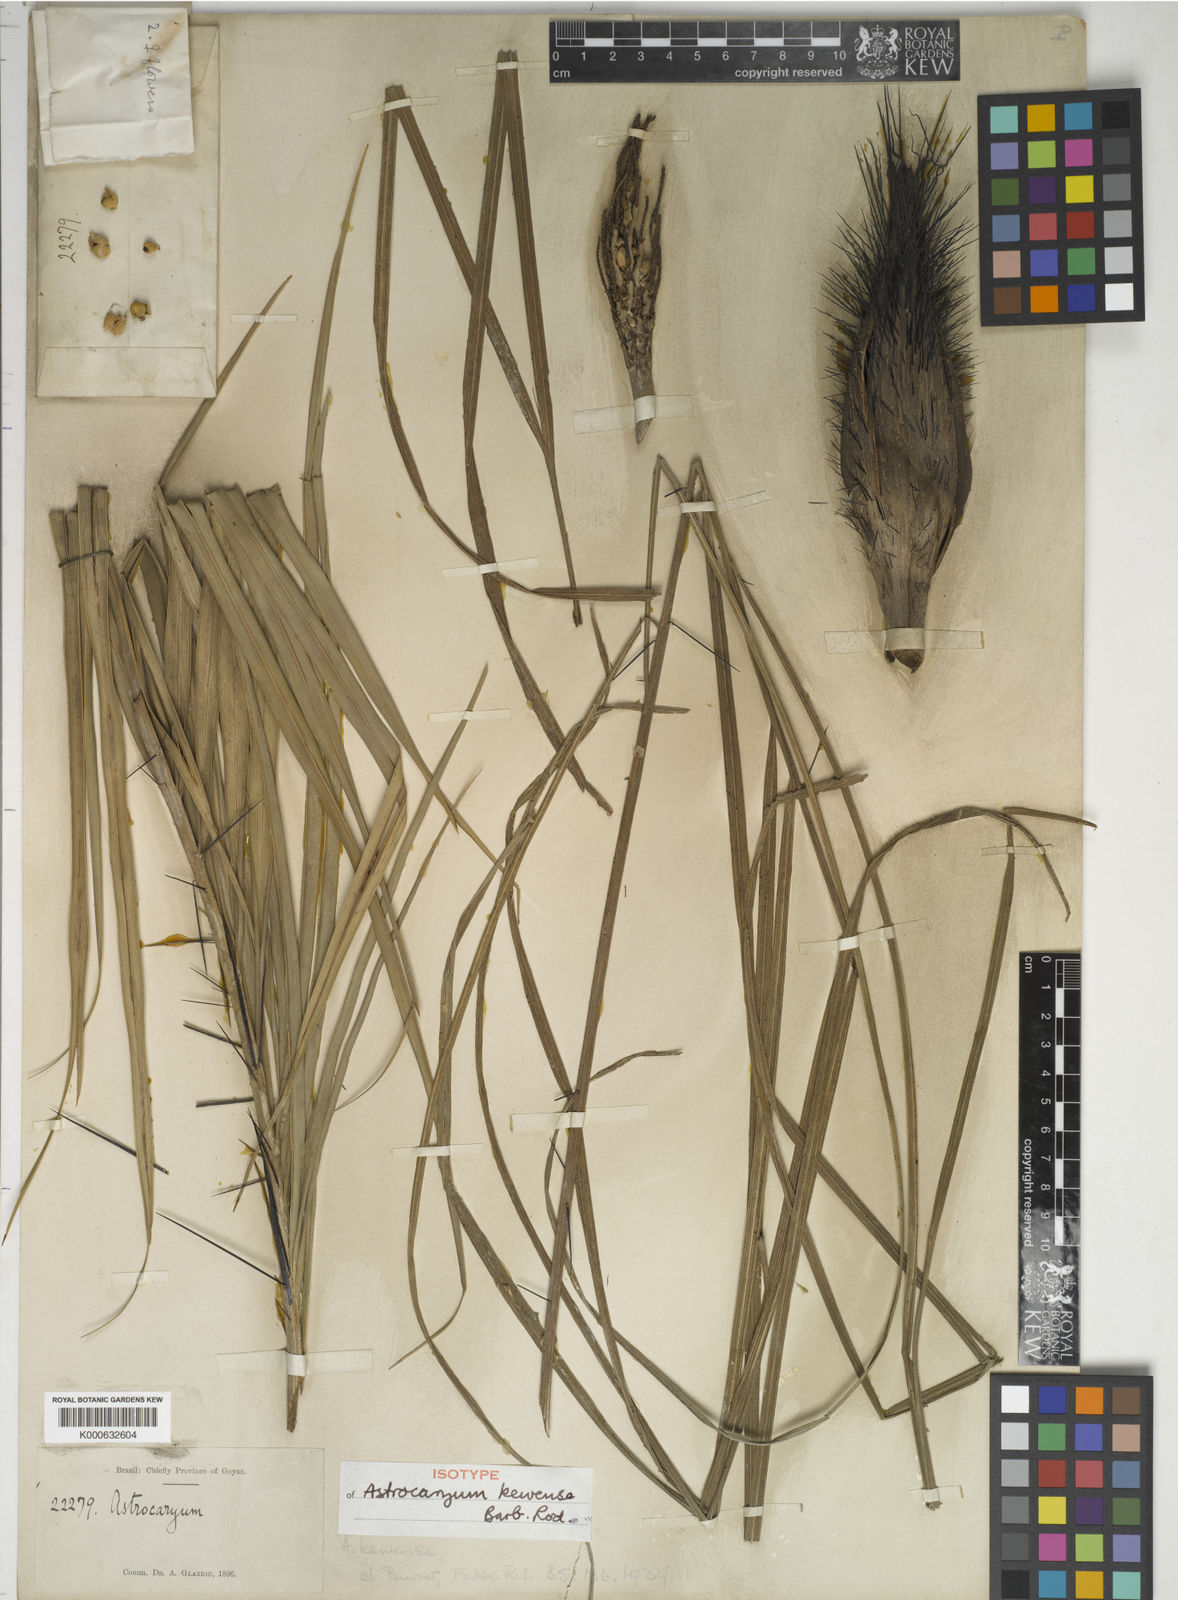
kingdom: Plantae
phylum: Tracheophyta
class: Liliopsida
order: Arecales
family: Arecaceae
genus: Astrocaryum
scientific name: Astrocaryum kewense
